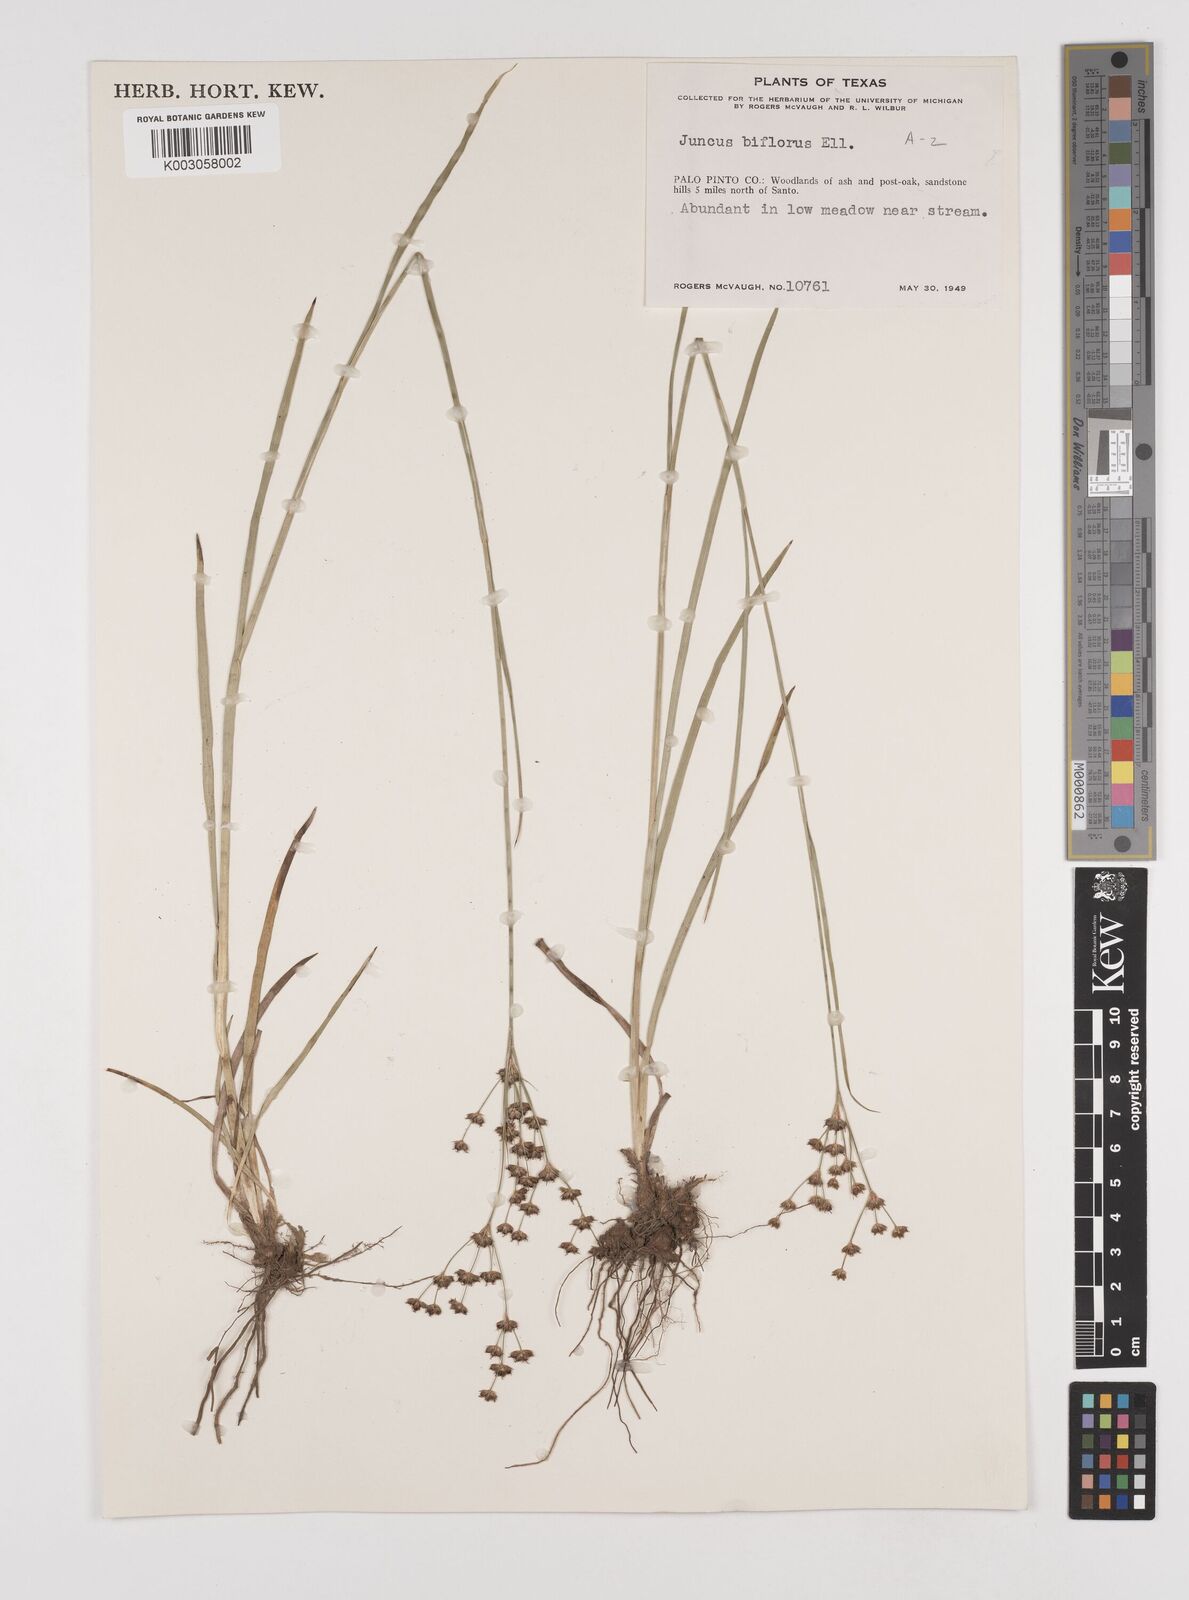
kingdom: Plantae
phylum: Tracheophyta
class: Liliopsida
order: Poales
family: Juncaceae
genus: Juncus
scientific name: Juncus marginatus
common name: Grass-leaf rush
